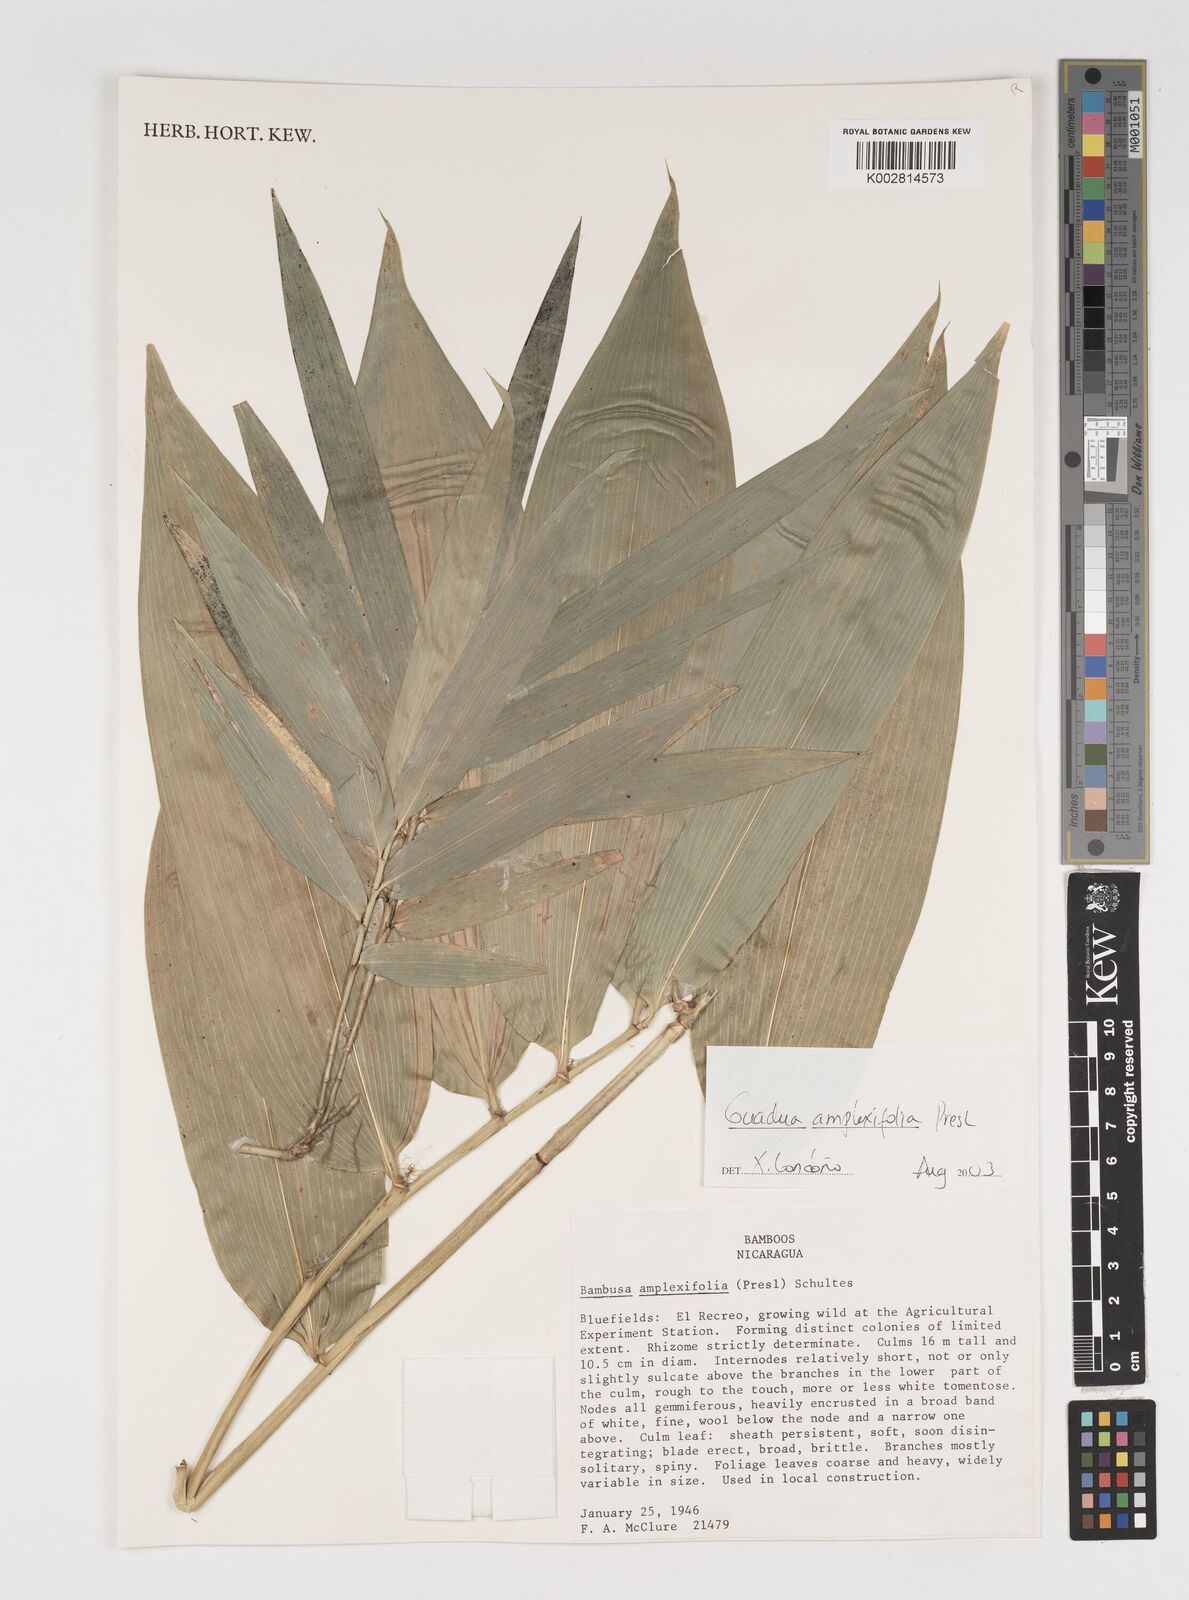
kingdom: Plantae
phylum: Tracheophyta
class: Liliopsida
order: Poales
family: Poaceae
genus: Guadua
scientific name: Guadua amplexifolia
